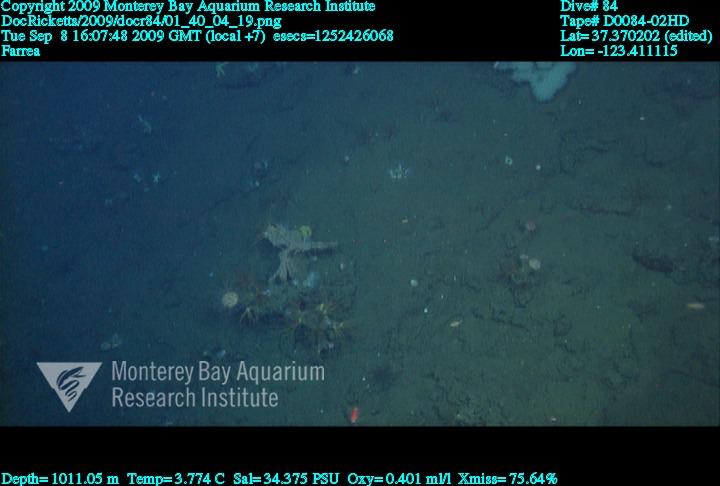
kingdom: Animalia
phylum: Porifera
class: Hexactinellida
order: Sceptrulophora
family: Farreidae
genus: Farrea
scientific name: Farrea
